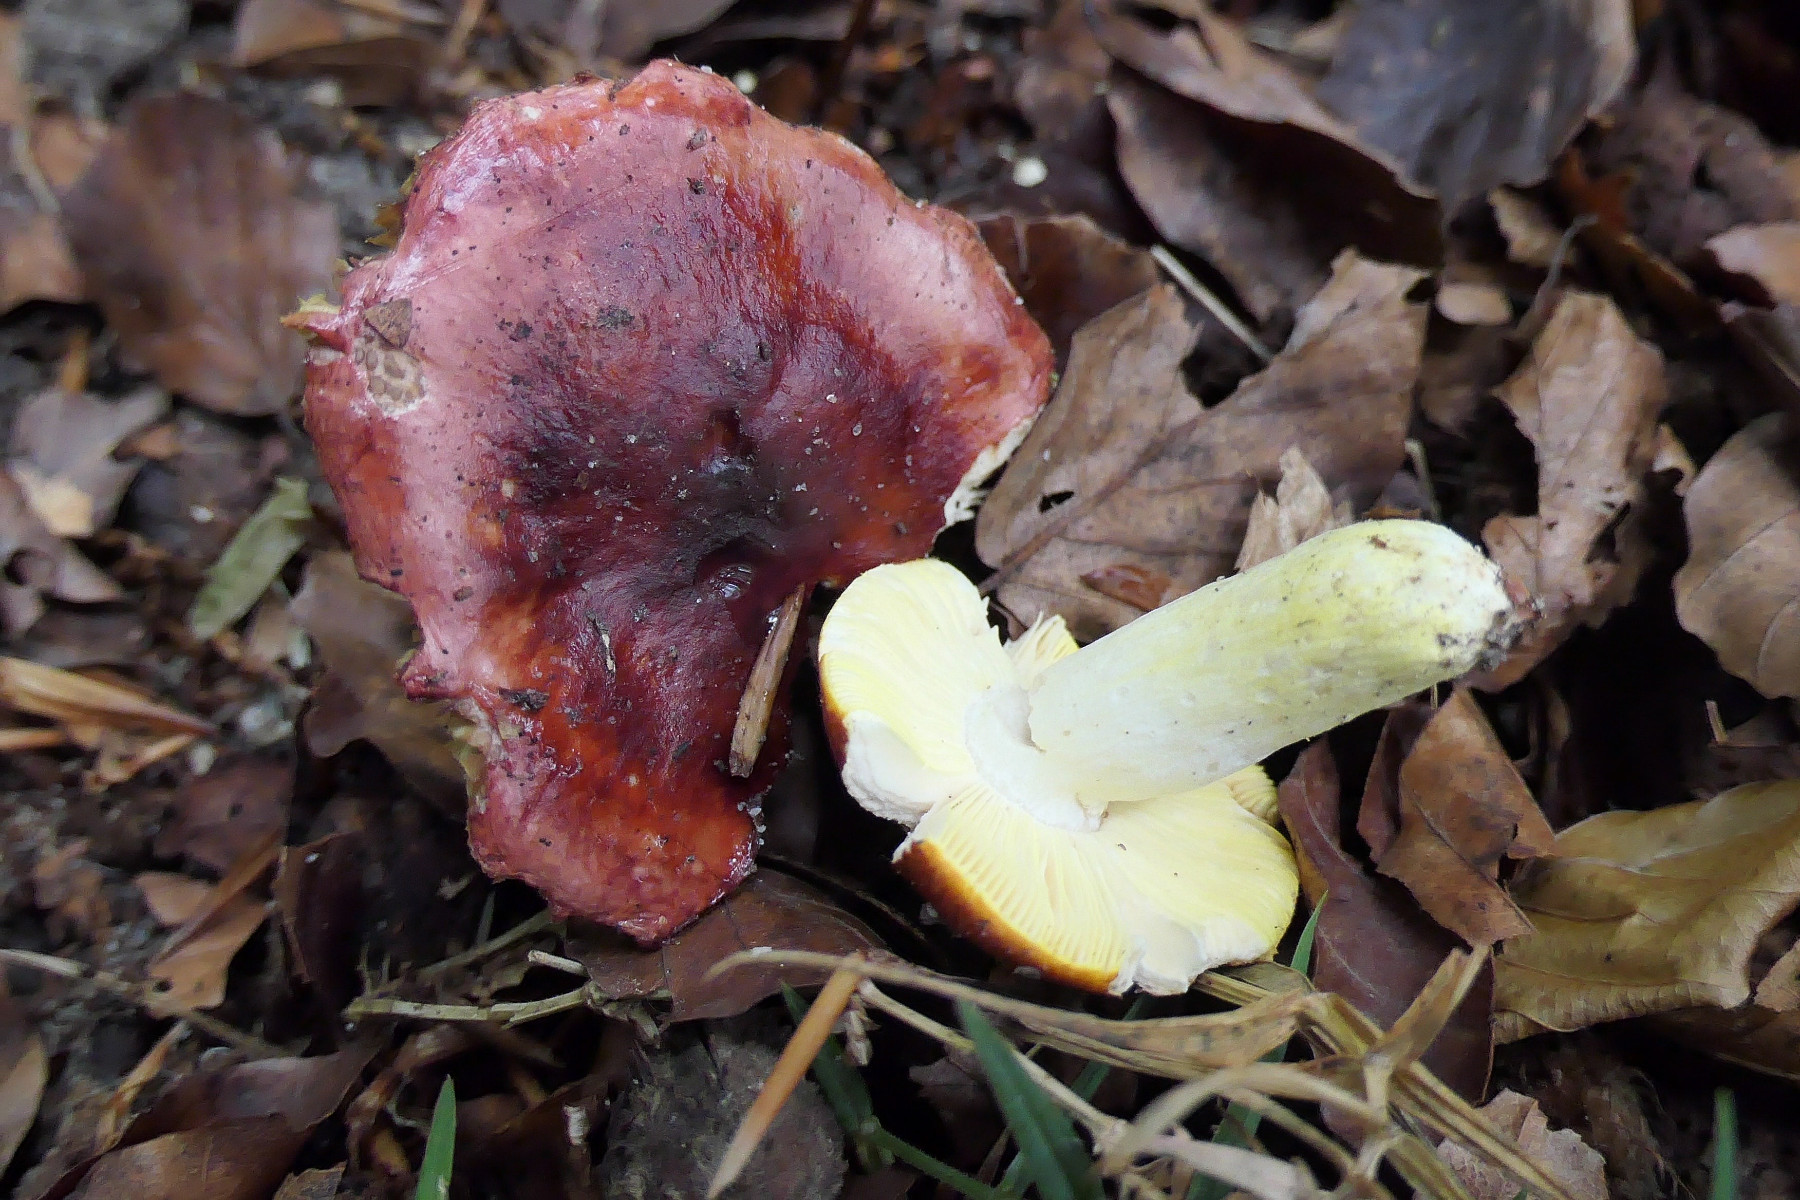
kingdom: Fungi
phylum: Basidiomycota
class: Agaricomycetes
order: Russulales
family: Russulaceae
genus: Russula
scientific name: Russula aurea
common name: gylden skørhat
